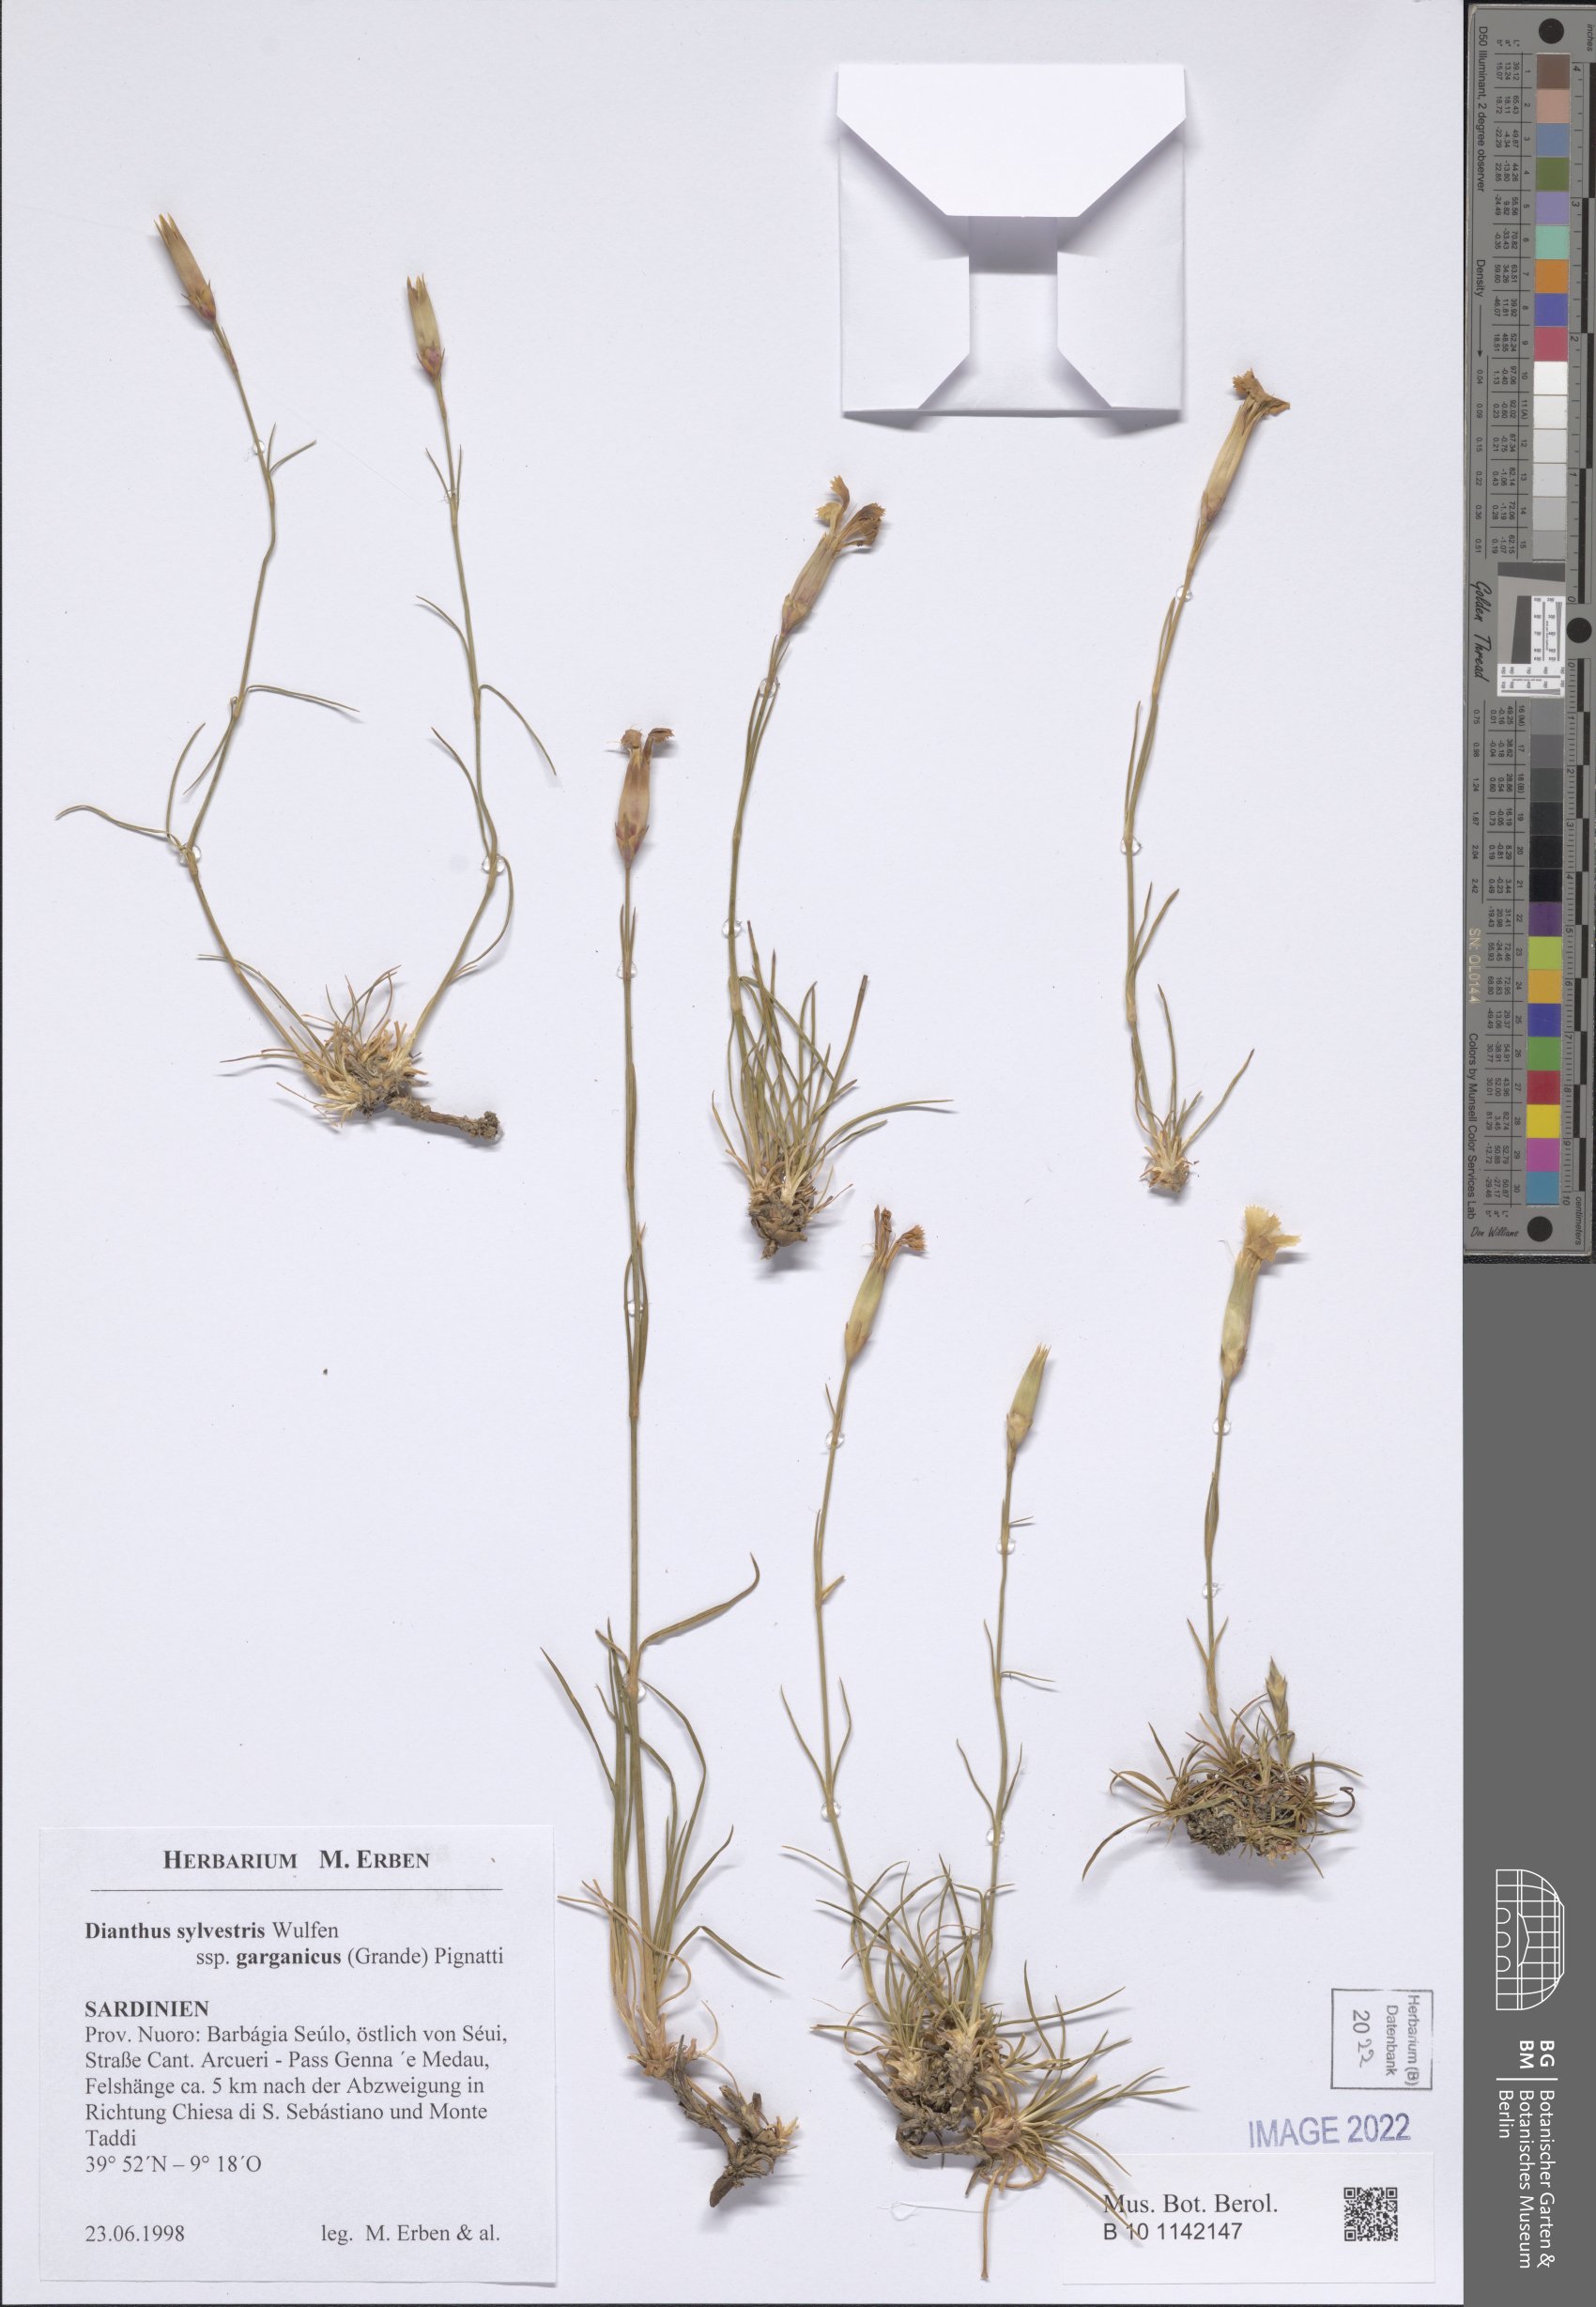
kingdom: Plantae
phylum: Tracheophyta
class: Magnoliopsida
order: Caryophyllales
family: Caryophyllaceae
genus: Dianthus
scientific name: Dianthus tarentinus
